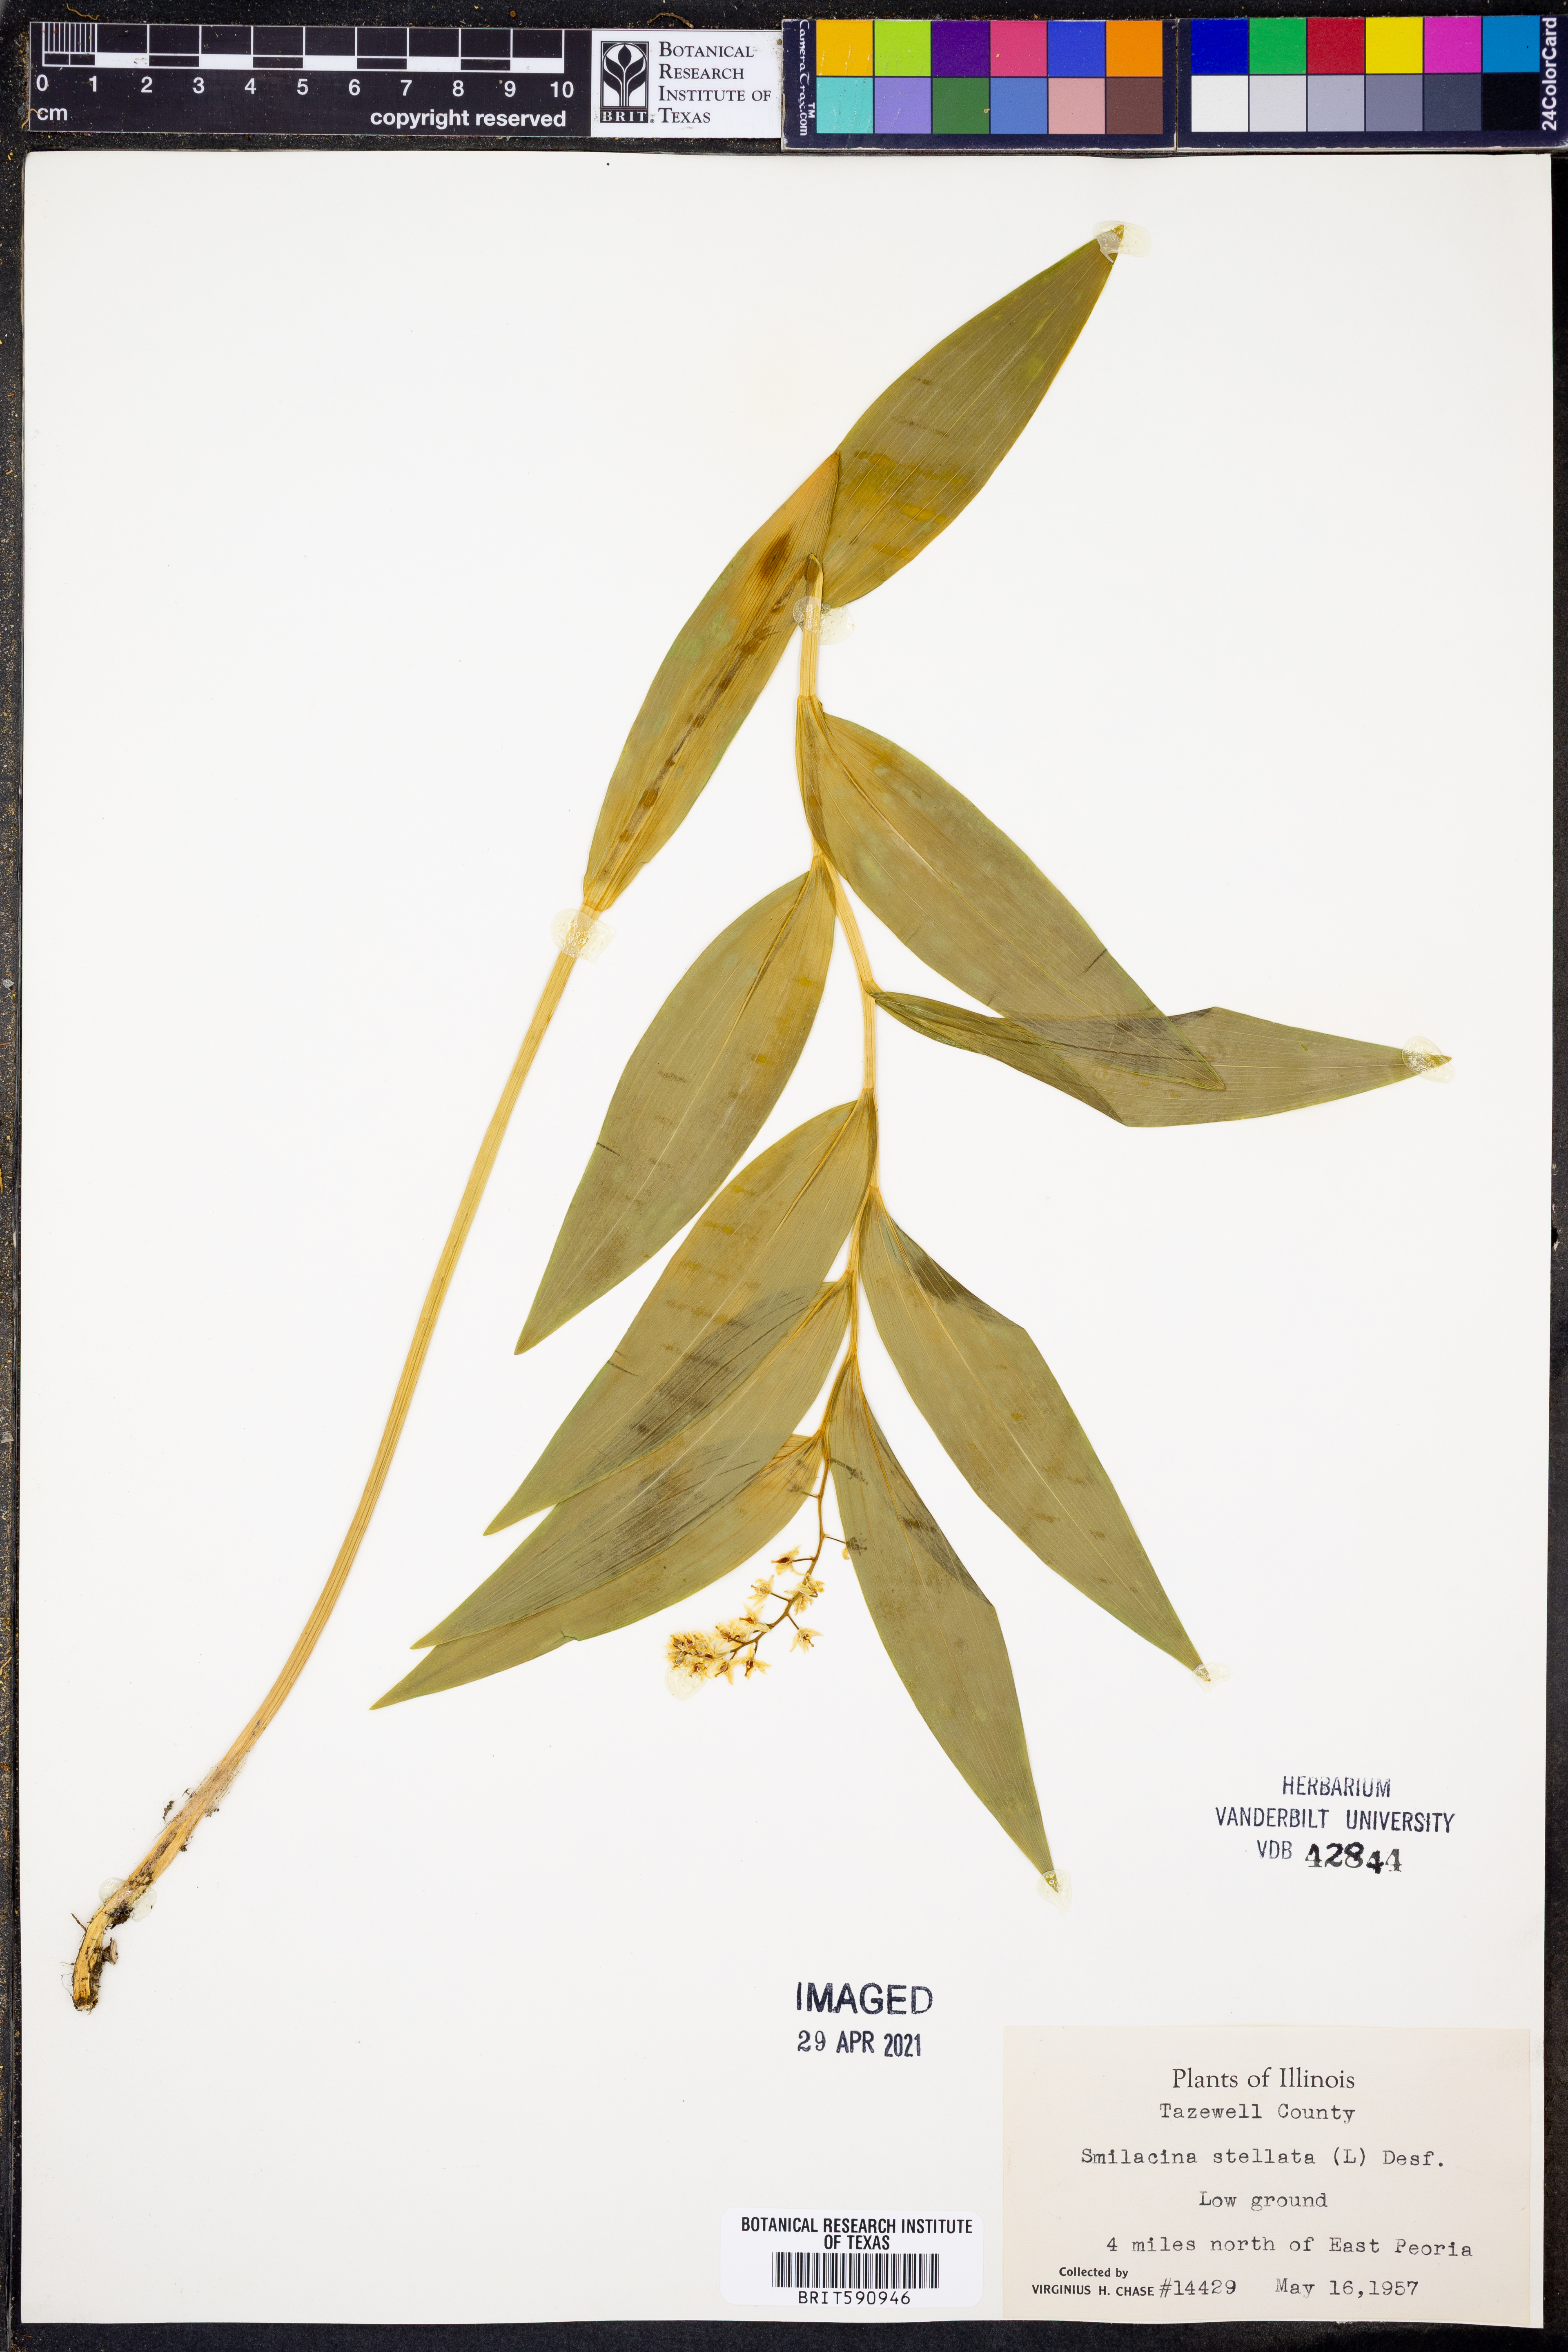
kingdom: Plantae
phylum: Tracheophyta
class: Liliopsida
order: Asparagales
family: Asparagaceae
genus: Maianthemum
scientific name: Maianthemum stellatum
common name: Little false solomon's seal
